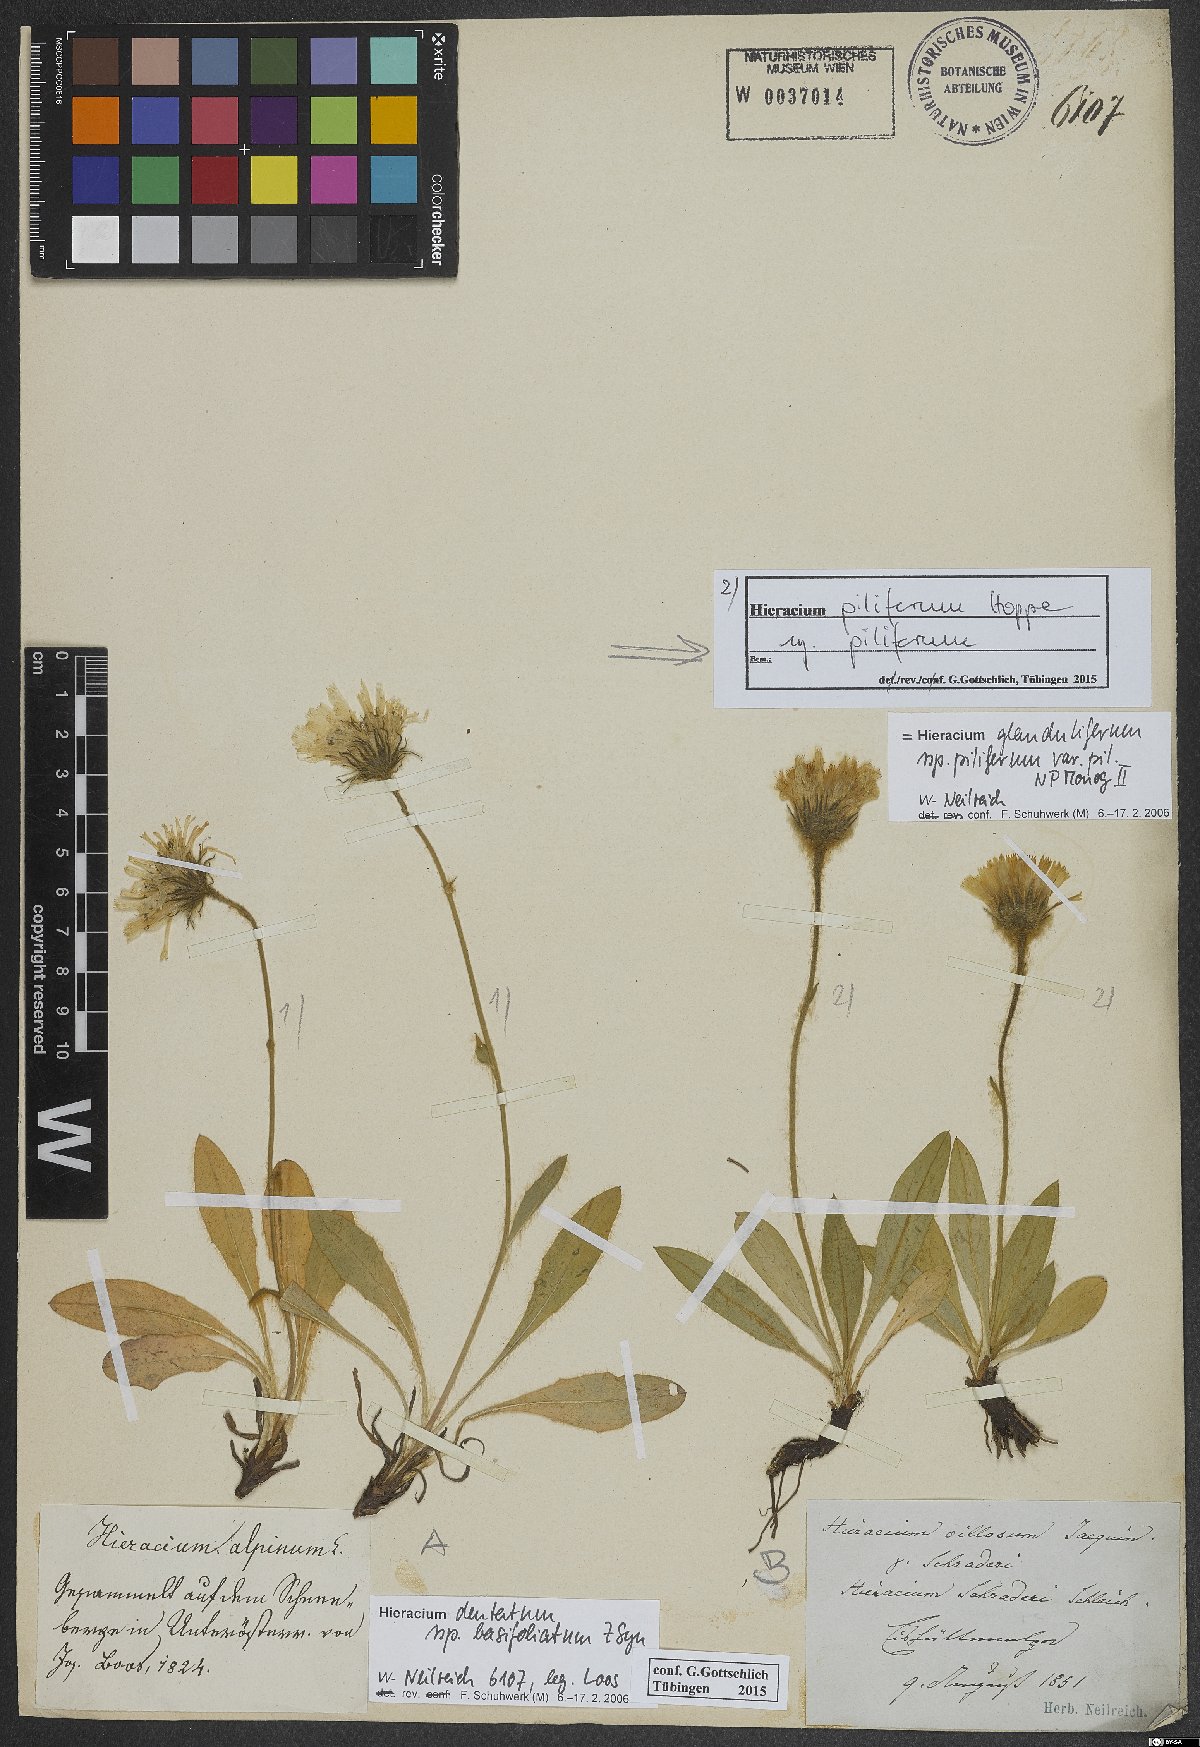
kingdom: Plantae
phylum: Tracheophyta
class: Magnoliopsida
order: Asterales
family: Asteraceae
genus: Hieracium
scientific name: Hieracium dentatum
